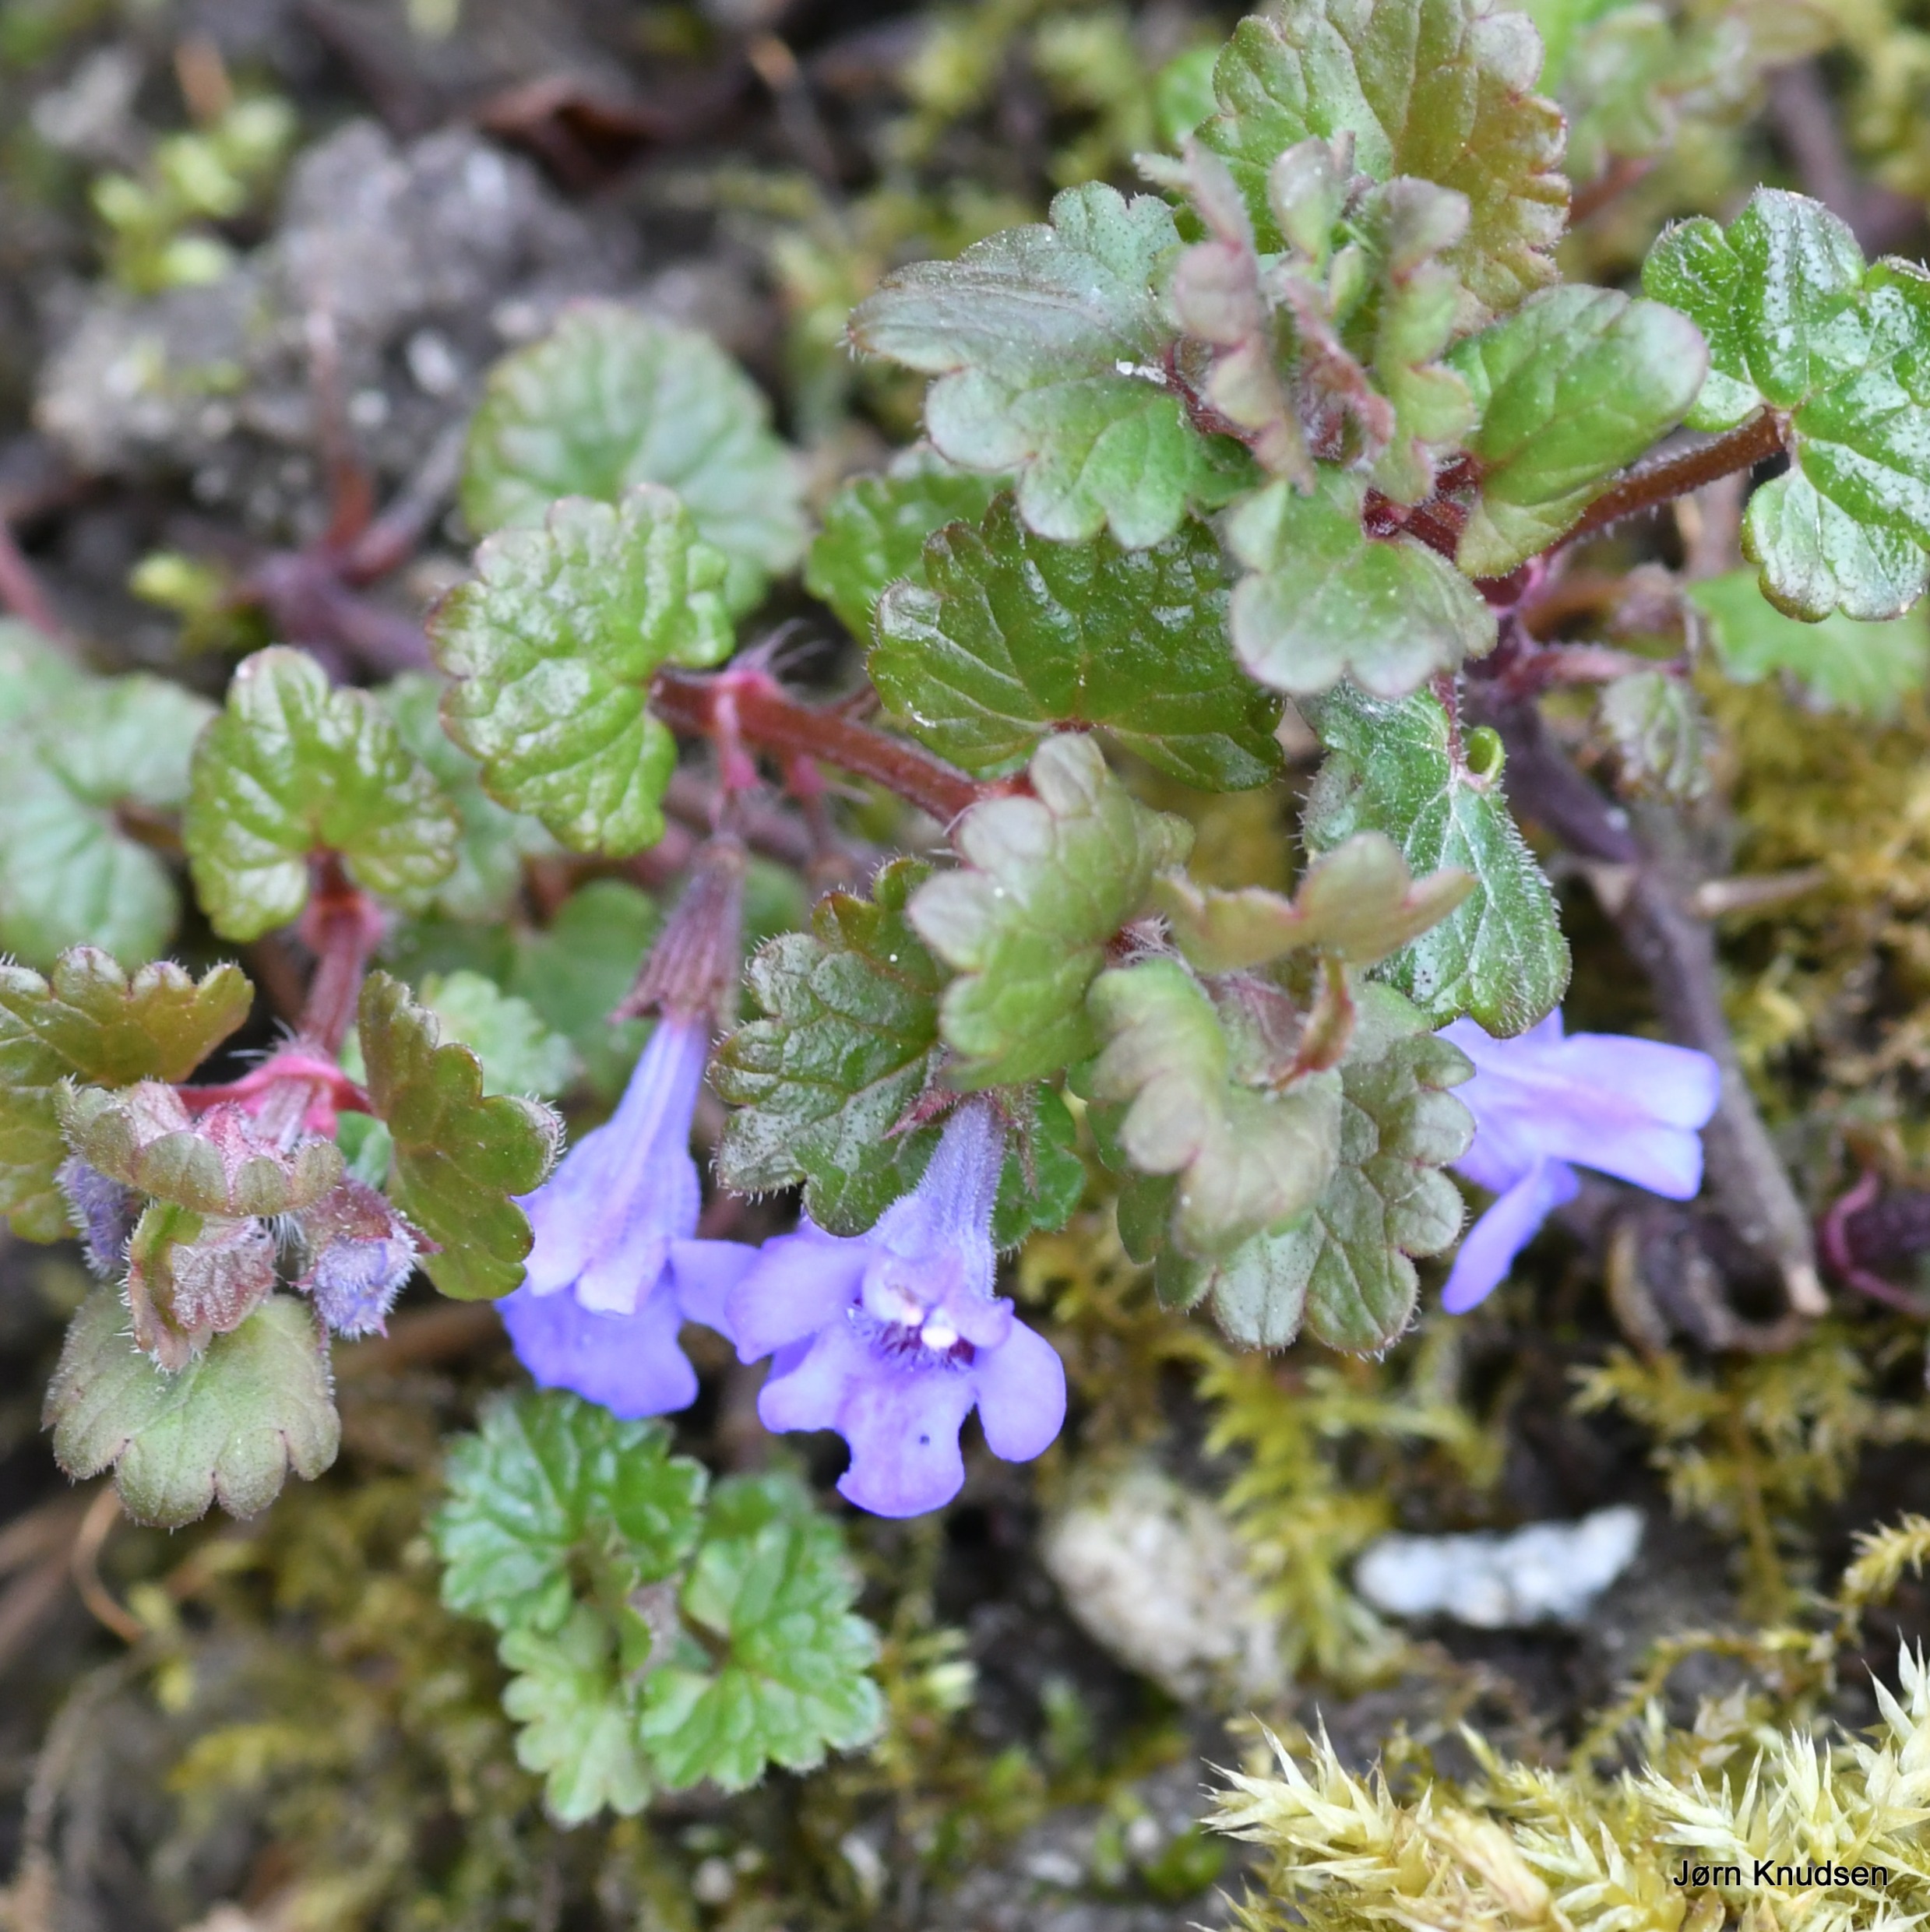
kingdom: Plantae
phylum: Tracheophyta
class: Magnoliopsida
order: Lamiales
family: Lamiaceae
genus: Glechoma
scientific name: Glechoma hederacea
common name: Korsknap
